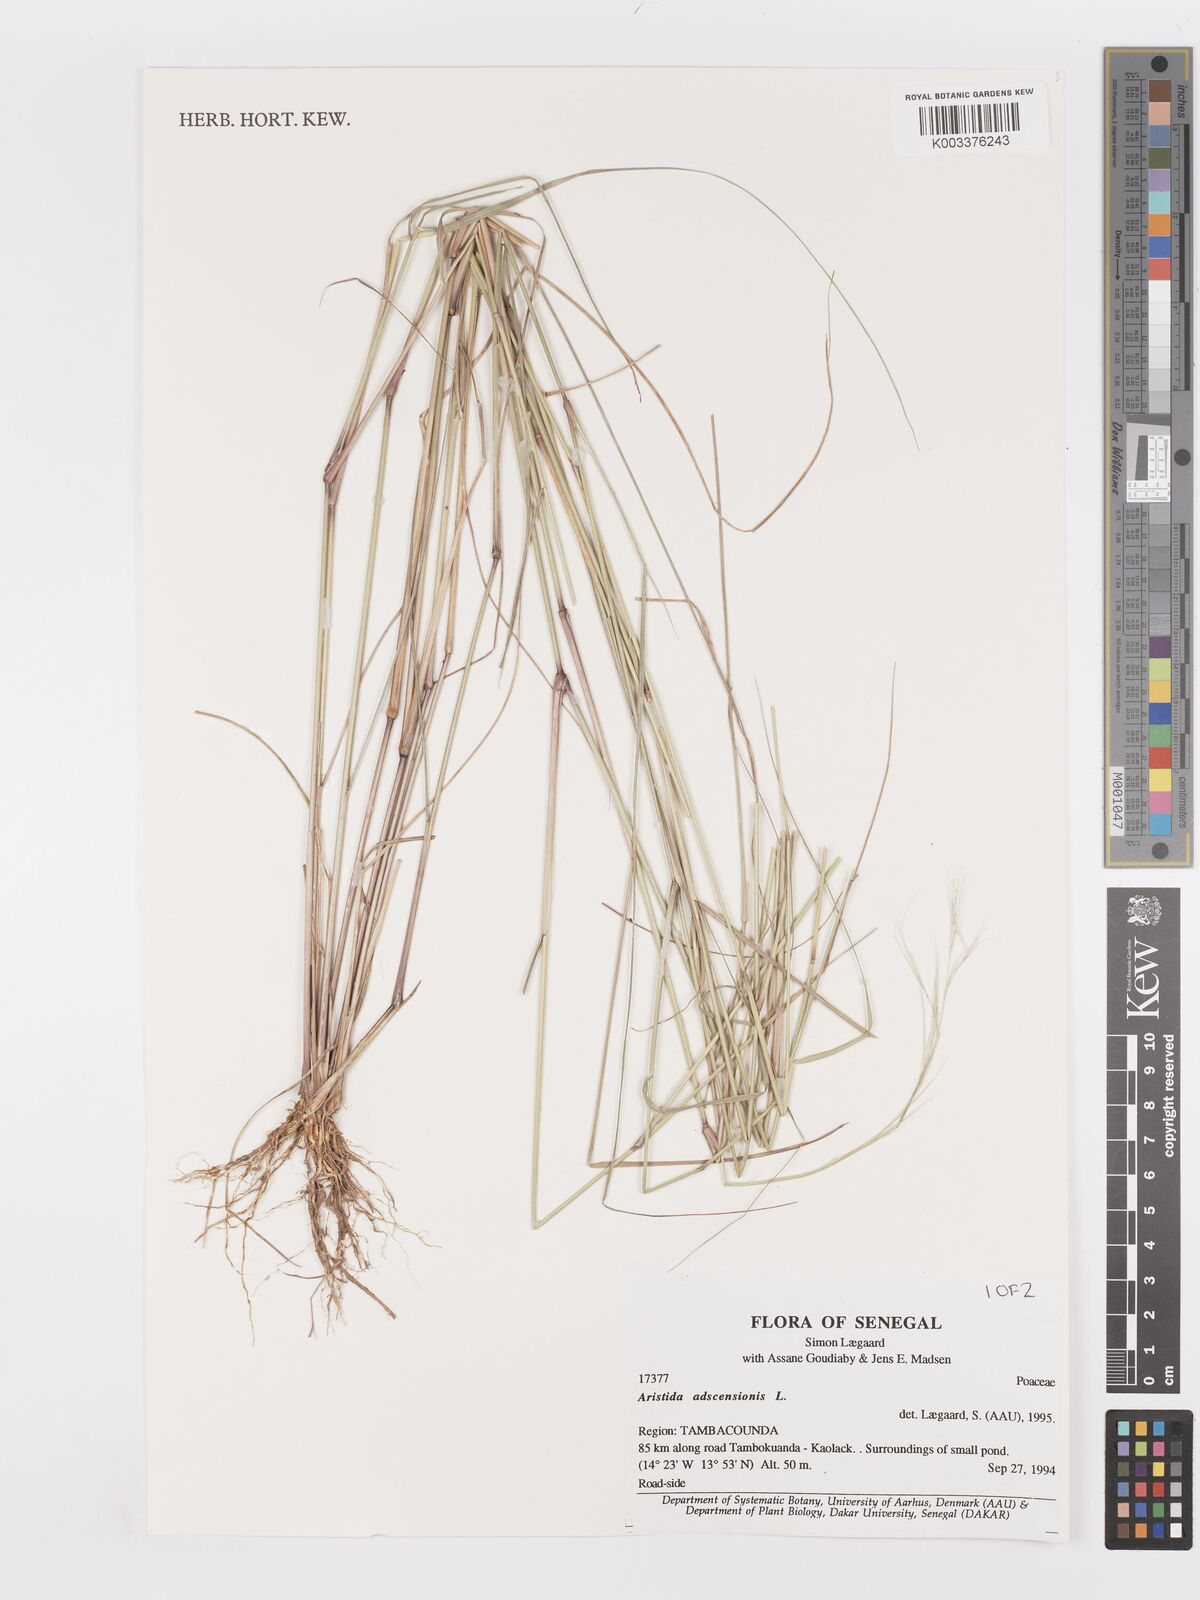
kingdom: Plantae
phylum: Tracheophyta
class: Liliopsida
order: Poales
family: Poaceae
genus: Aristida
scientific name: Aristida adscensionis
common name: Sixweeks threeawn
